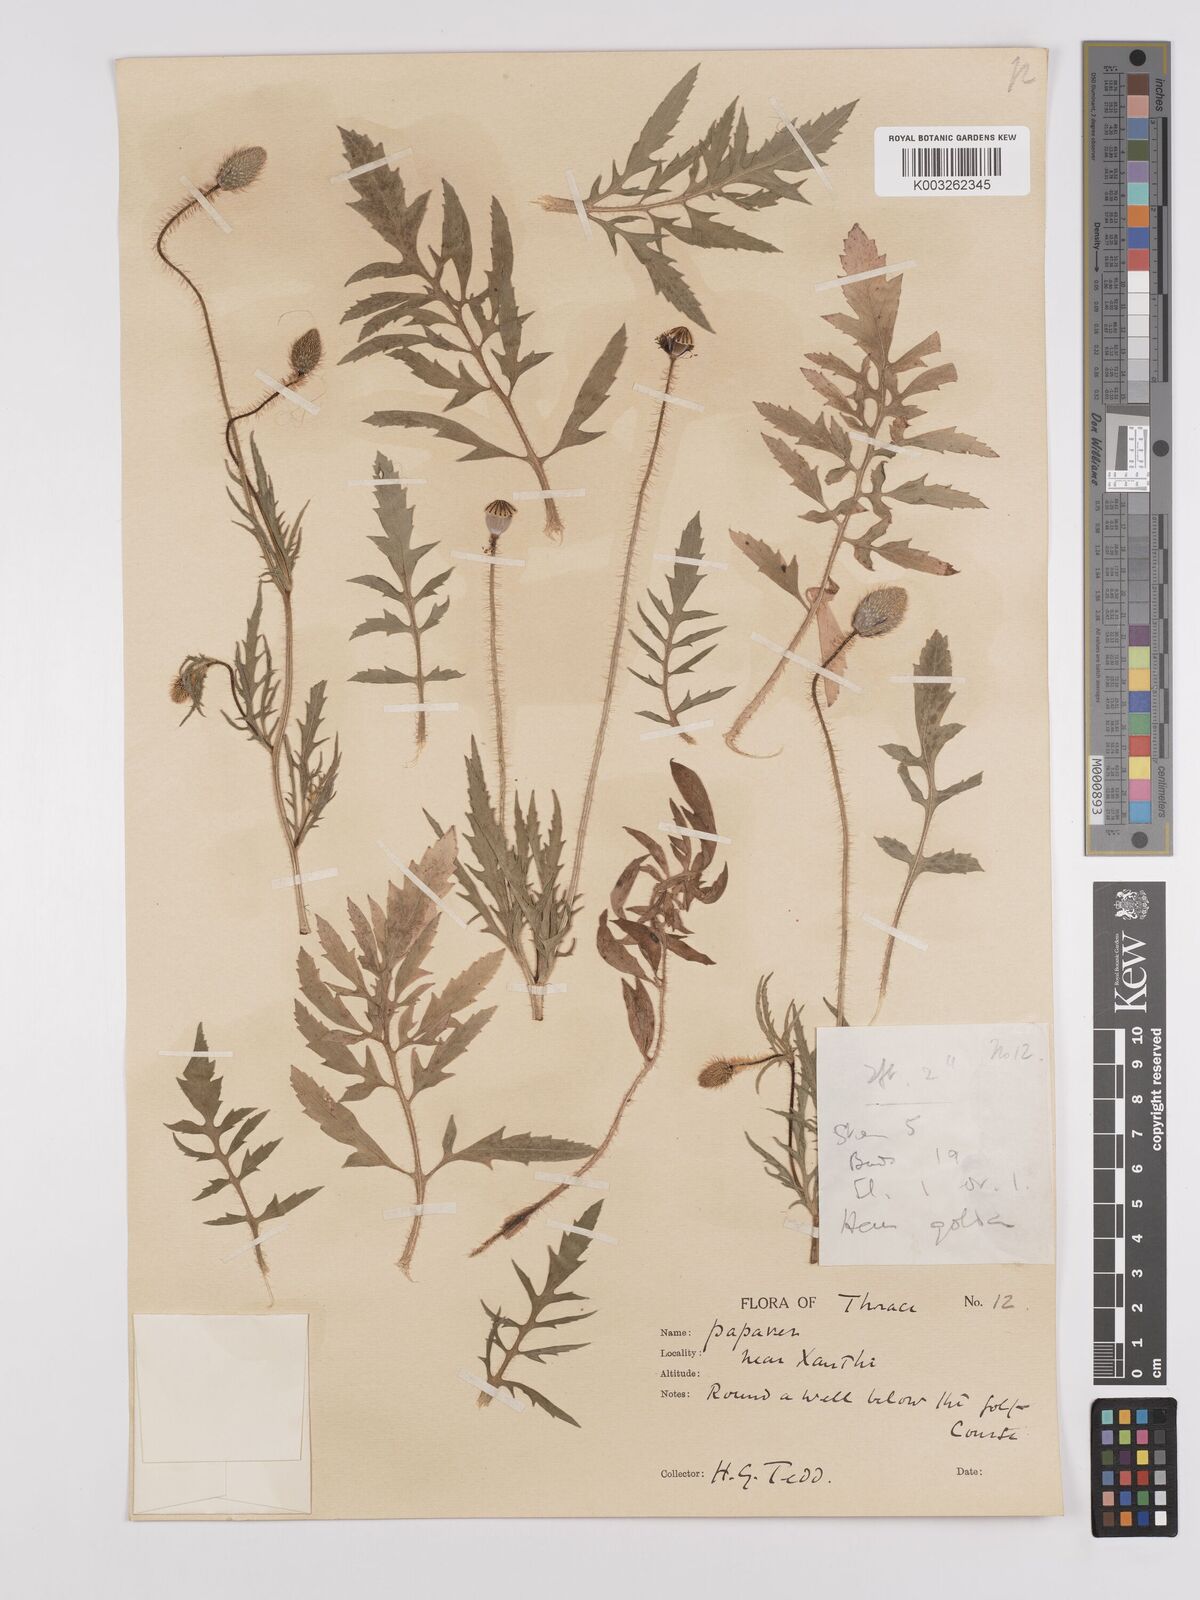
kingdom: Plantae
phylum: Tracheophyta
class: Magnoliopsida
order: Ranunculales
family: Papaveraceae
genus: Papaver
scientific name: Papaver rhoeas
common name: Corn poppy
